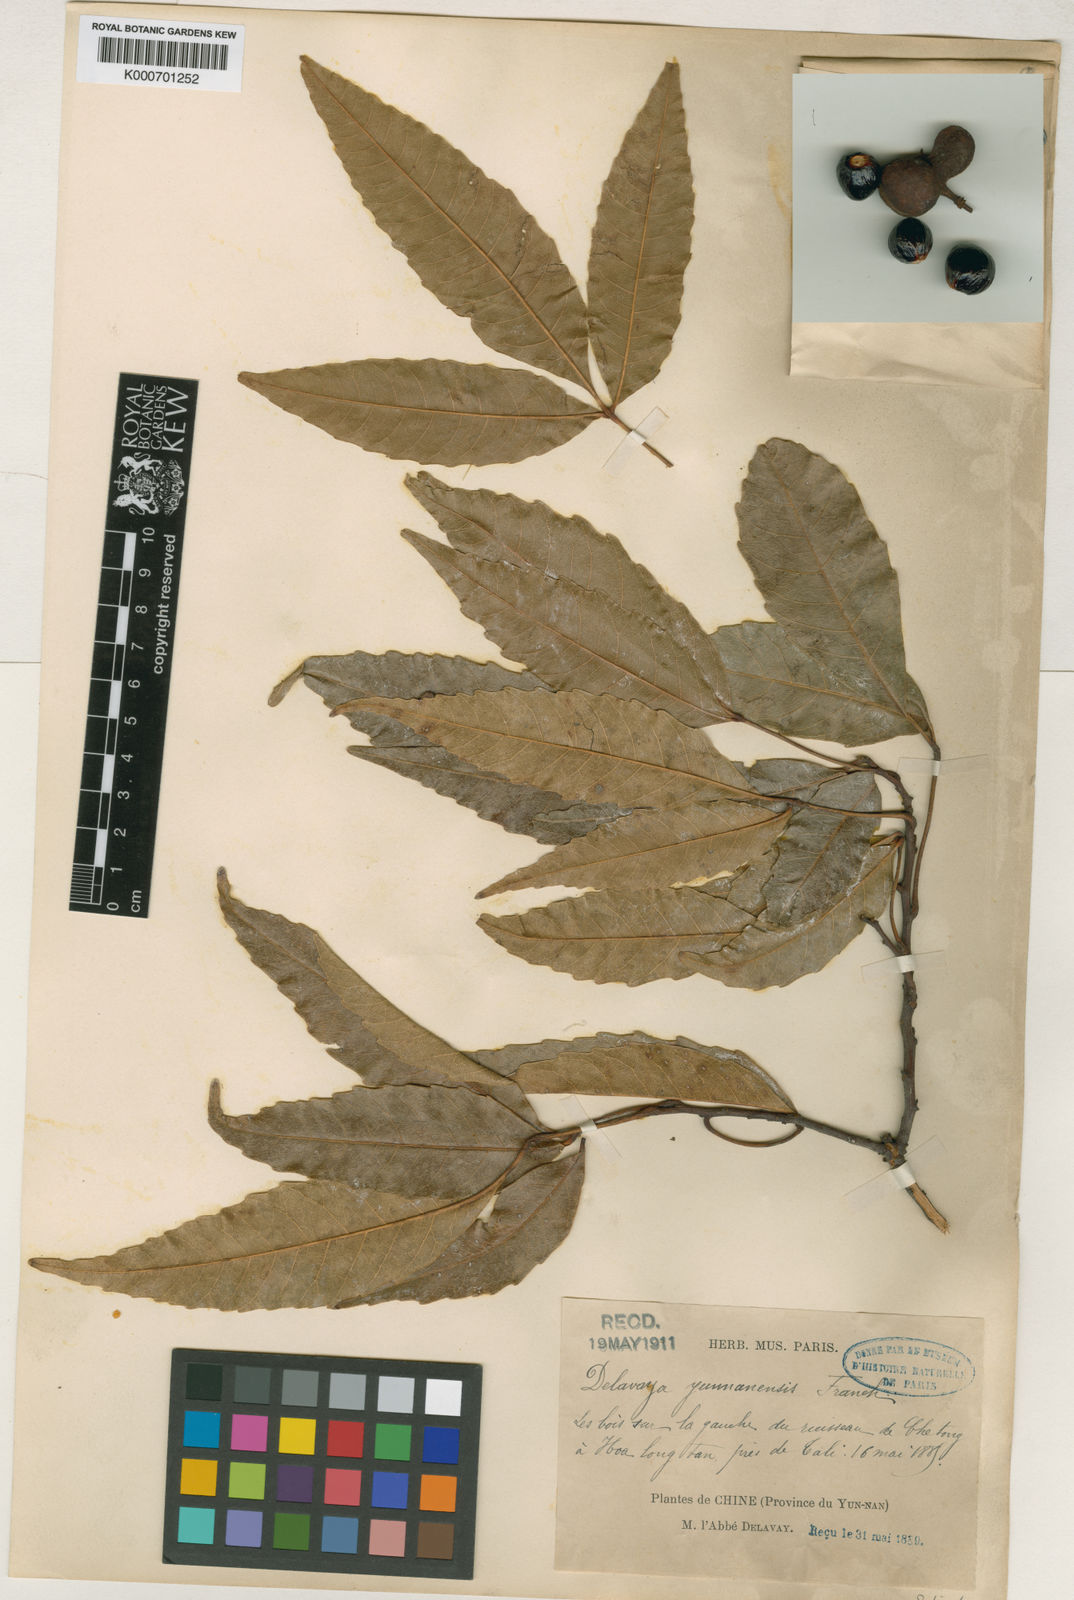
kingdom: Plantae
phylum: Tracheophyta
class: Magnoliopsida
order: Sapindales
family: Sapindaceae
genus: Delavaya
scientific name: Delavaya toxocarpa
